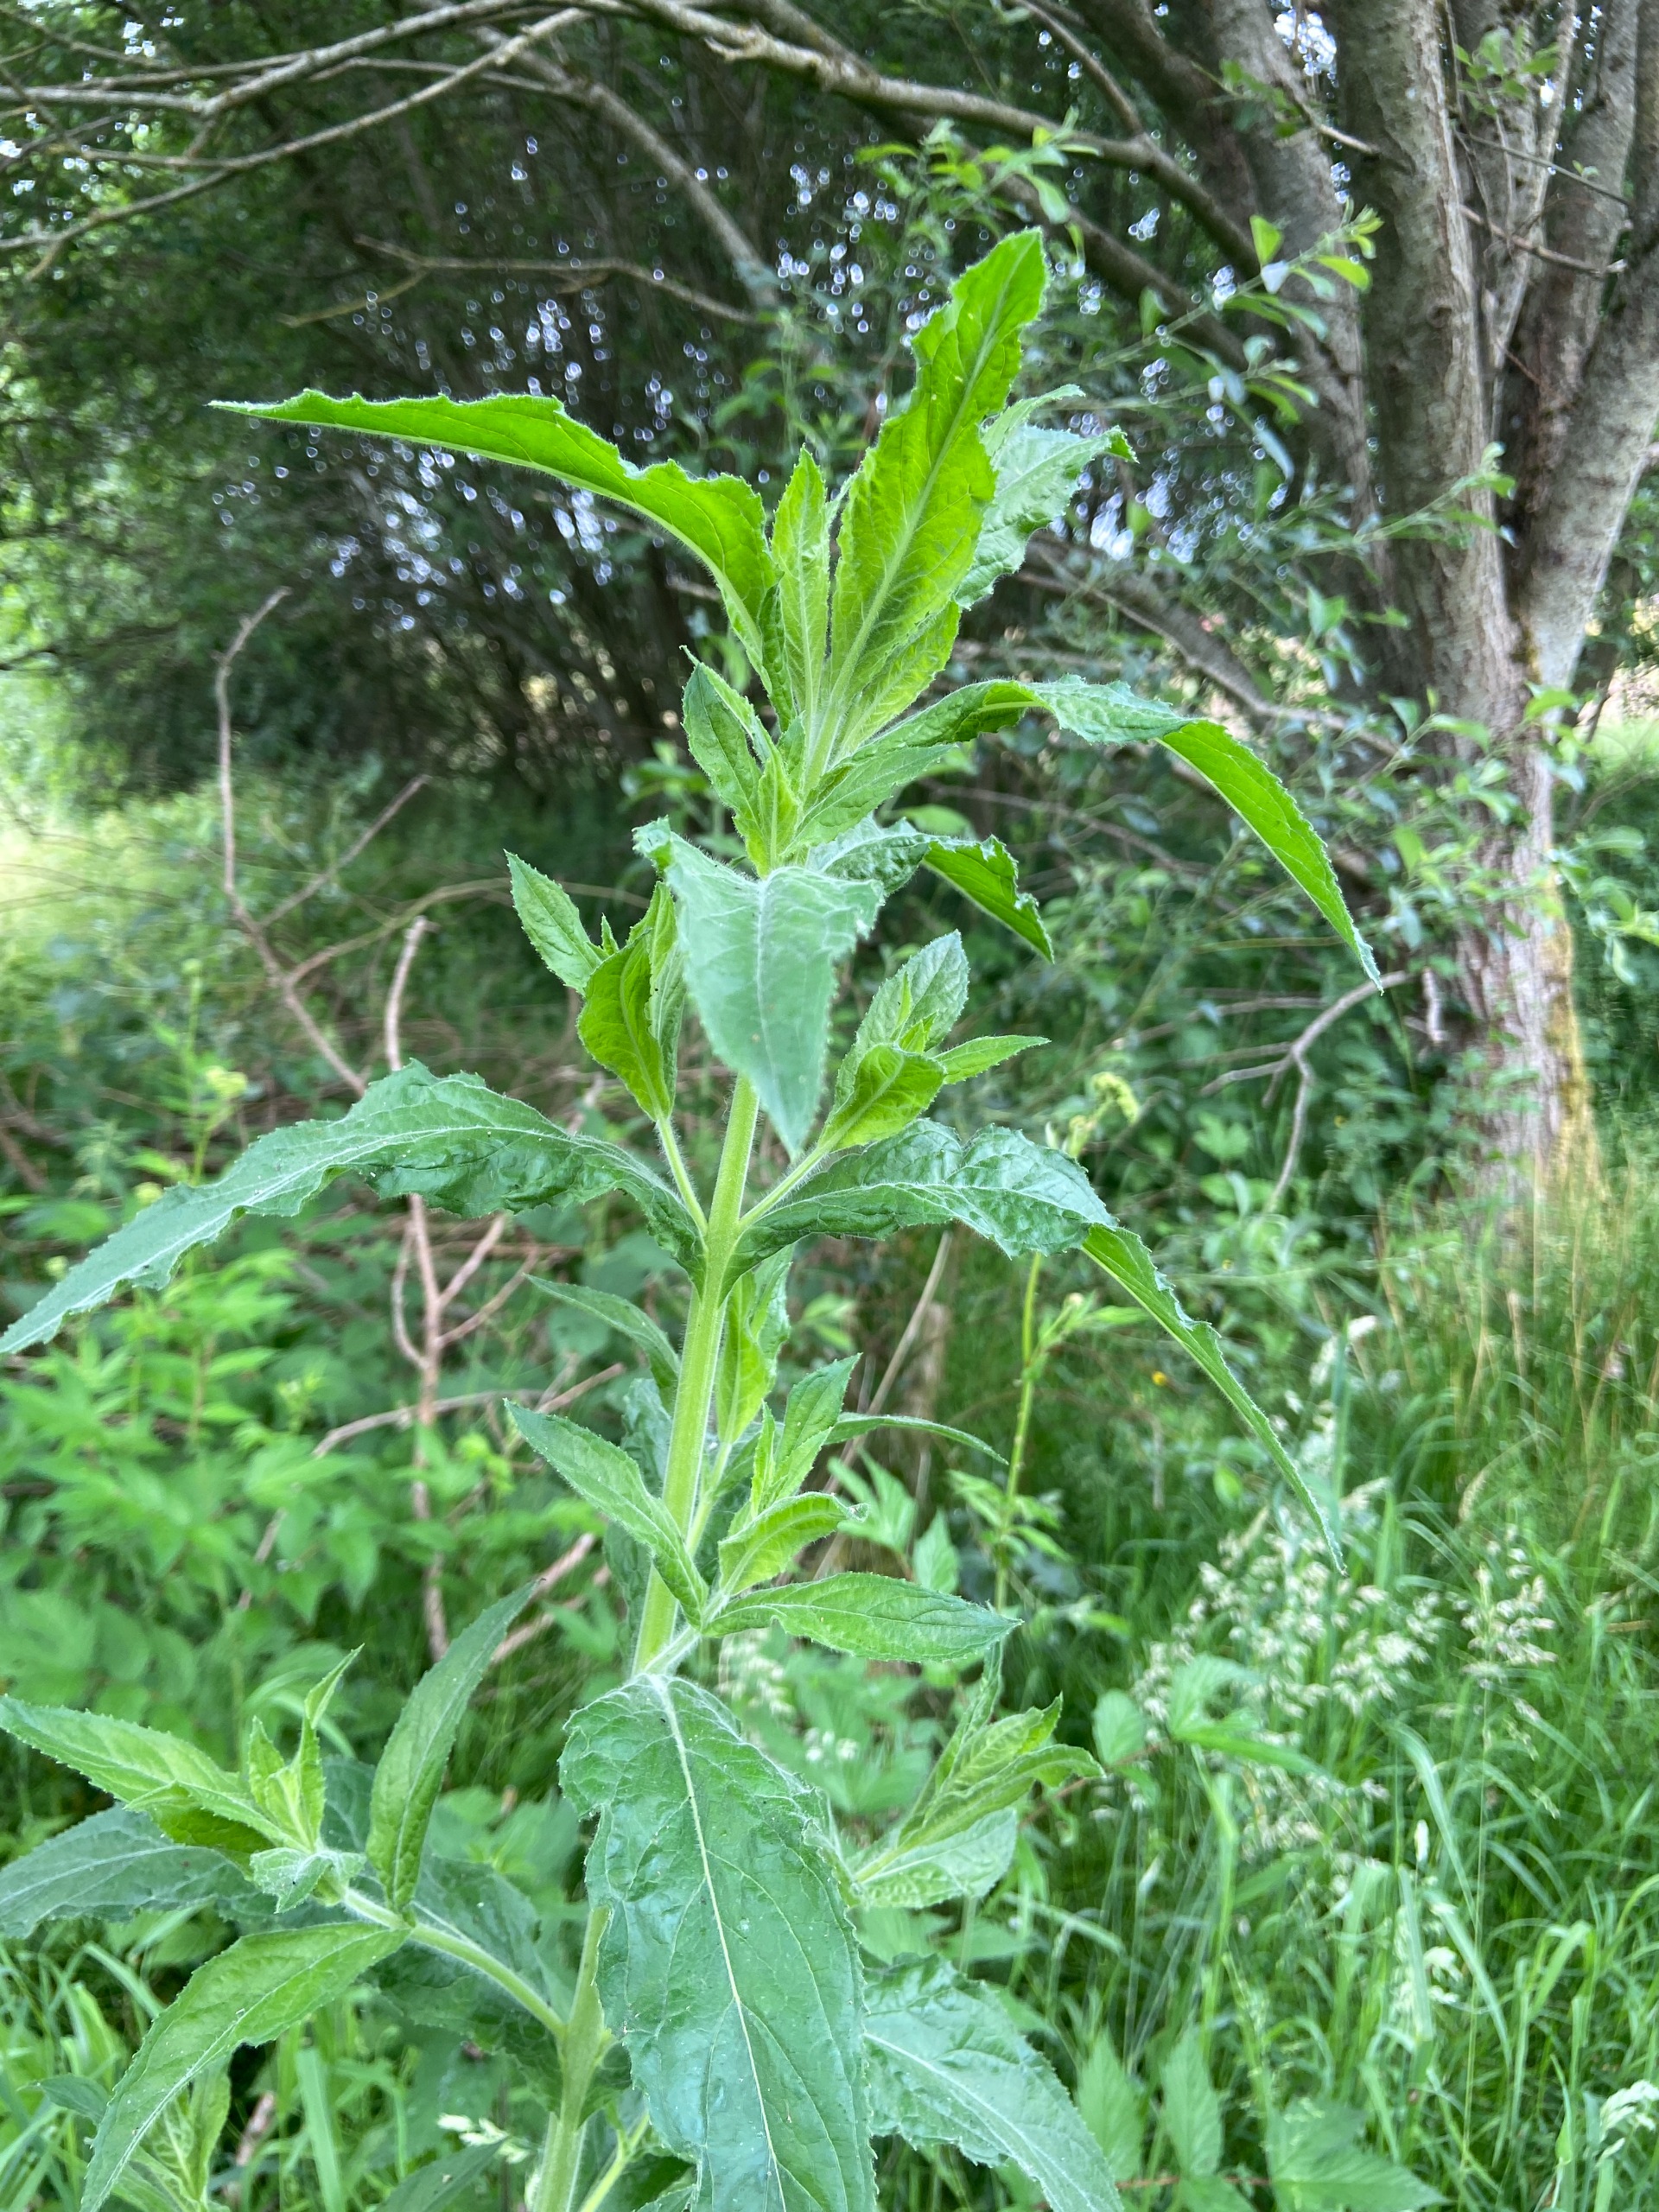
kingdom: Plantae
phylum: Tracheophyta
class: Magnoliopsida
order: Myrtales
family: Onagraceae
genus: Epilobium
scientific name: Epilobium hirsutum
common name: Lådden dueurt
